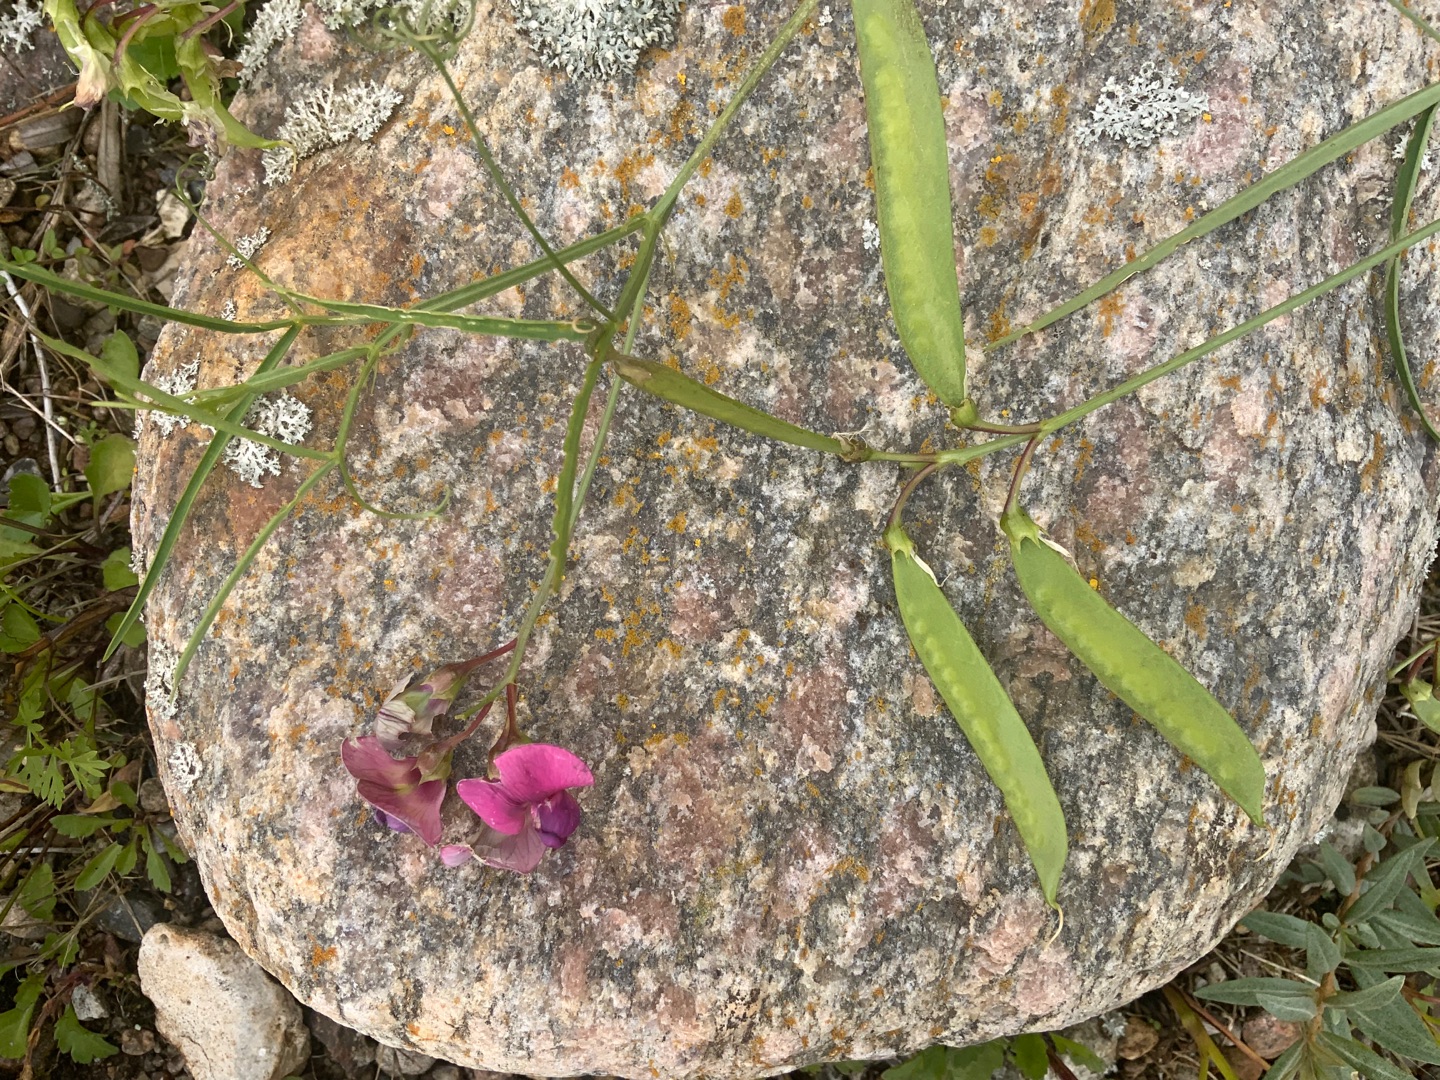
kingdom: Plantae
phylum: Tracheophyta
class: Magnoliopsida
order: Fabales
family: Fabaceae
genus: Lathyrus
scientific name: Lathyrus sylvestris
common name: Skov-fladbælg
